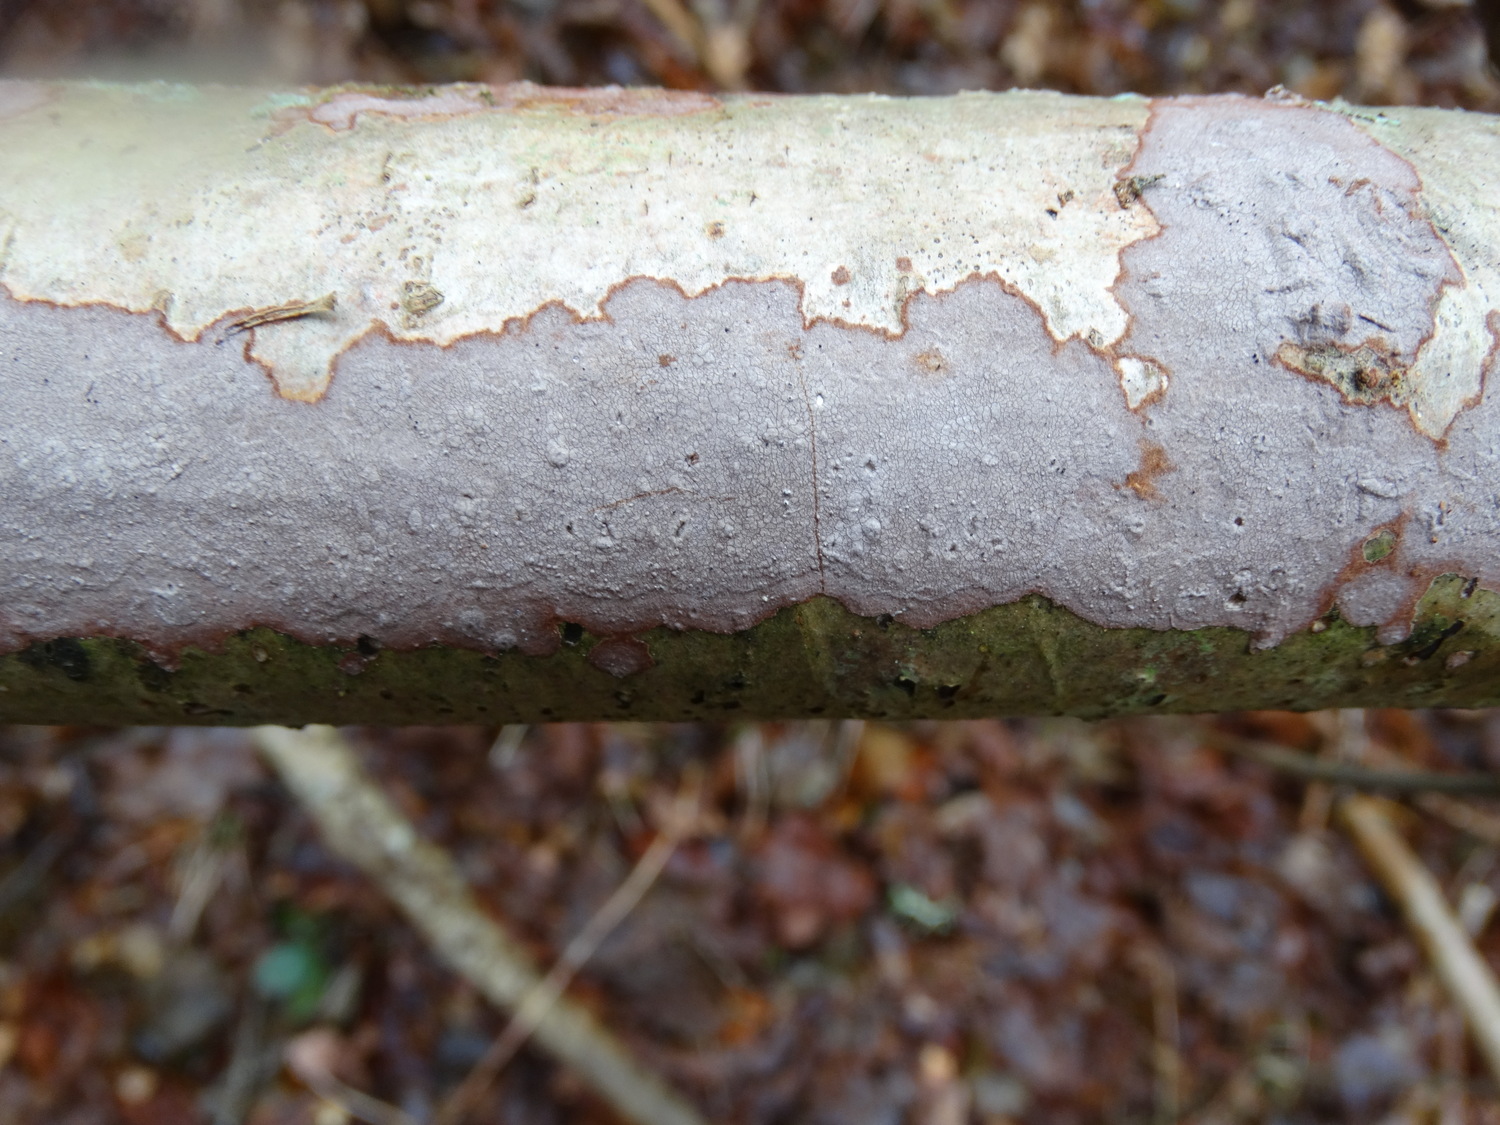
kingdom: Fungi
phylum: Basidiomycota
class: Agaricomycetes
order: Russulales
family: Peniophoraceae
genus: Peniophora
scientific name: Peniophora
